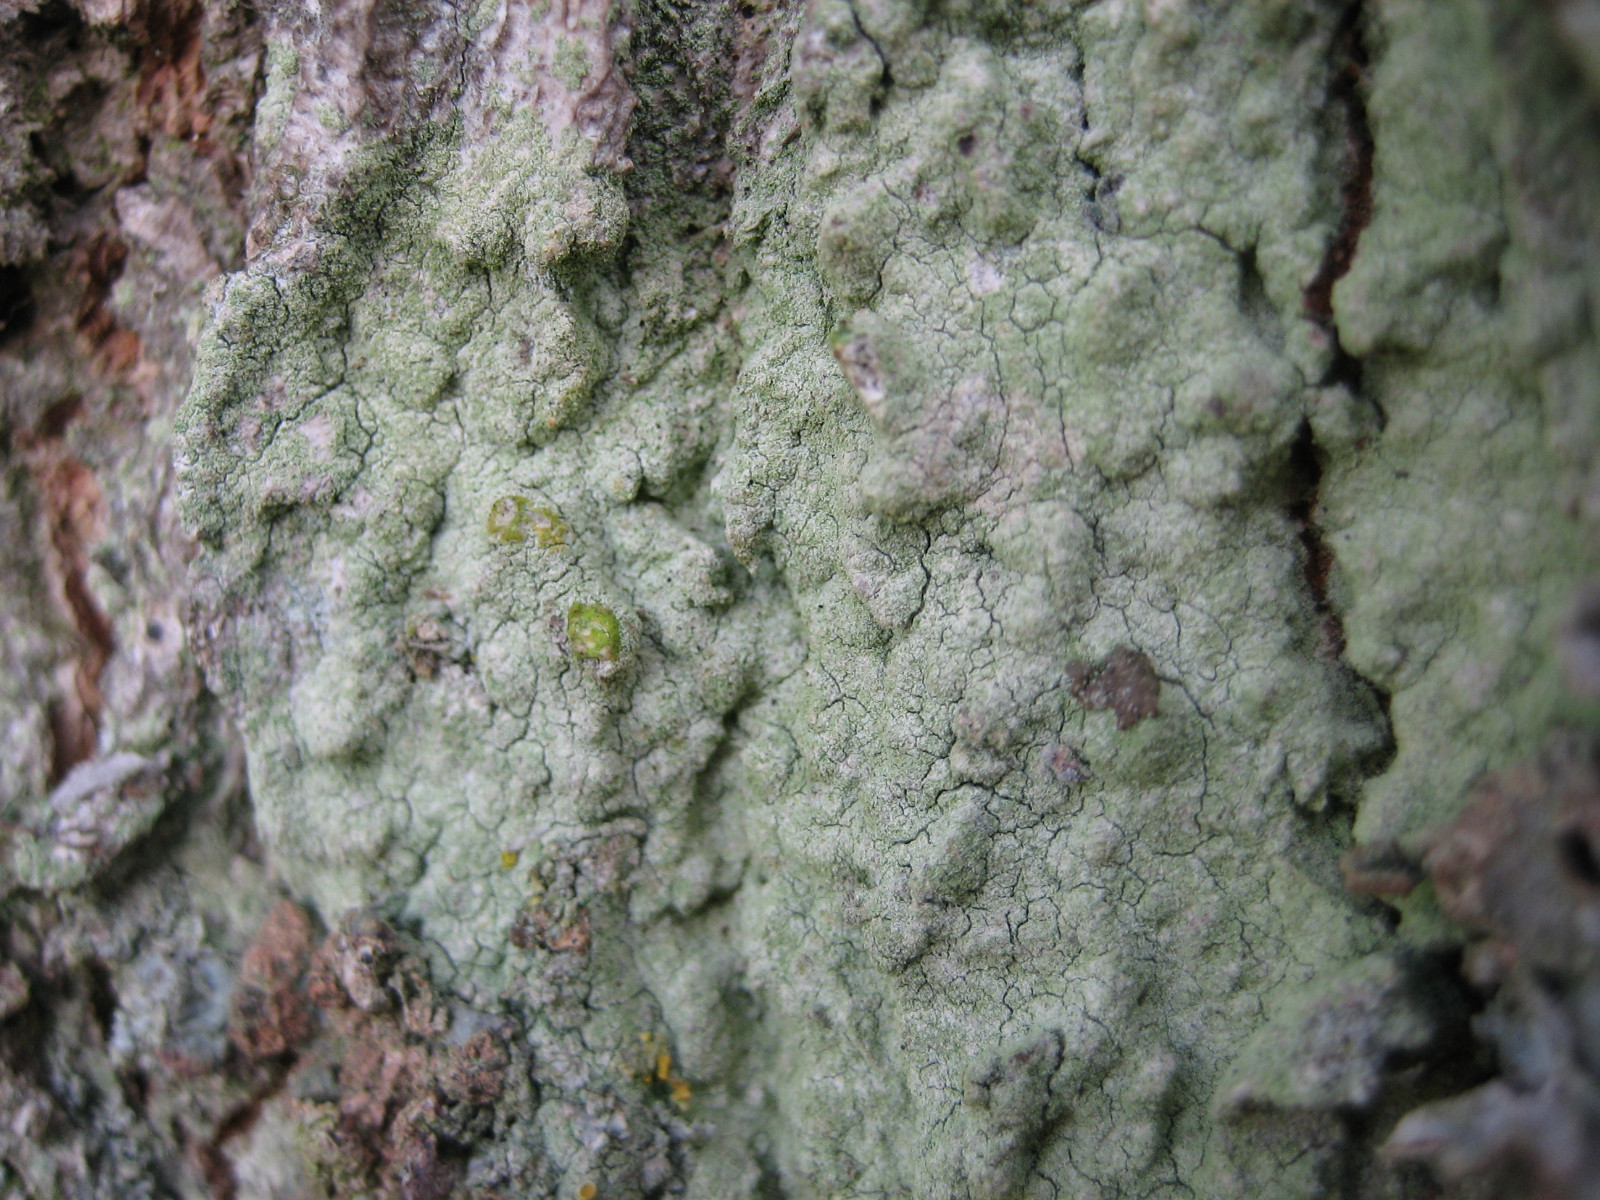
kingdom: Fungi
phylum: Ascomycota
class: Lecanoromycetes
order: Lecanorales
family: Lecanoraceae
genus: Lecanora
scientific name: Lecanora expallens
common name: bleggul kantskivelav
